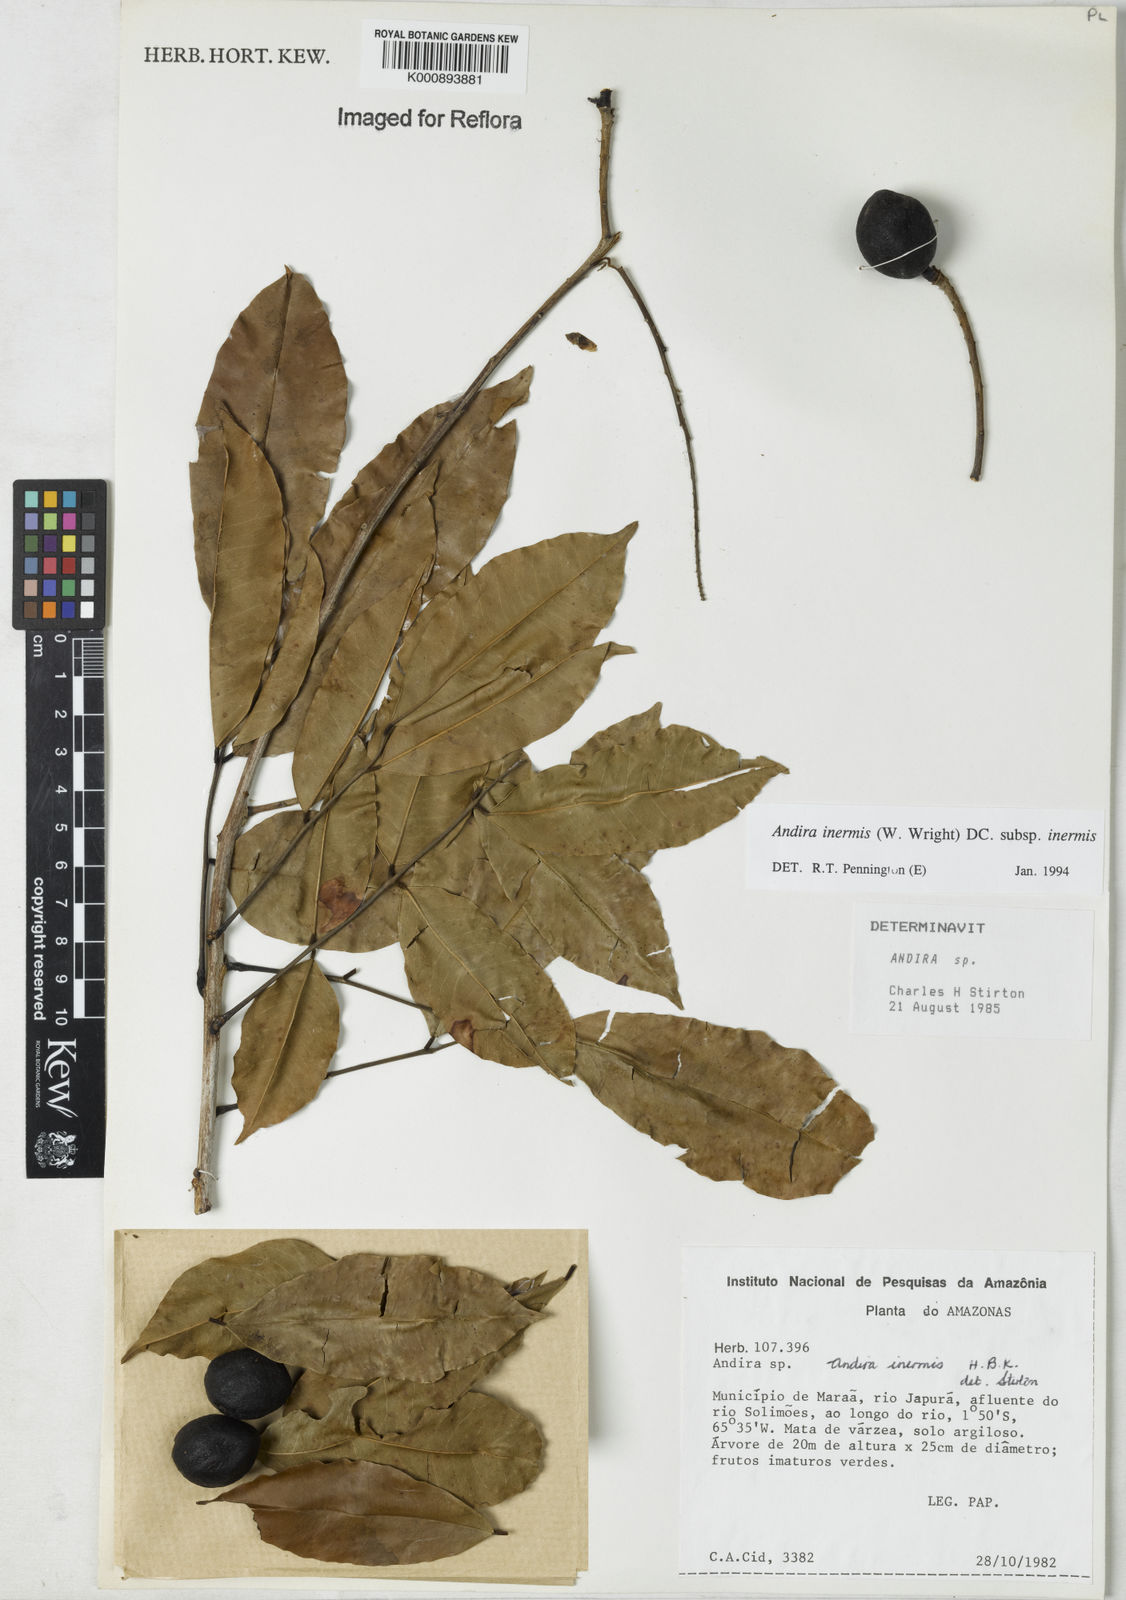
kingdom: Plantae
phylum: Tracheophyta
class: Magnoliopsida
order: Fabales
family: Fabaceae
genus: Andira
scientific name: Andira inermis
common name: Angelin
